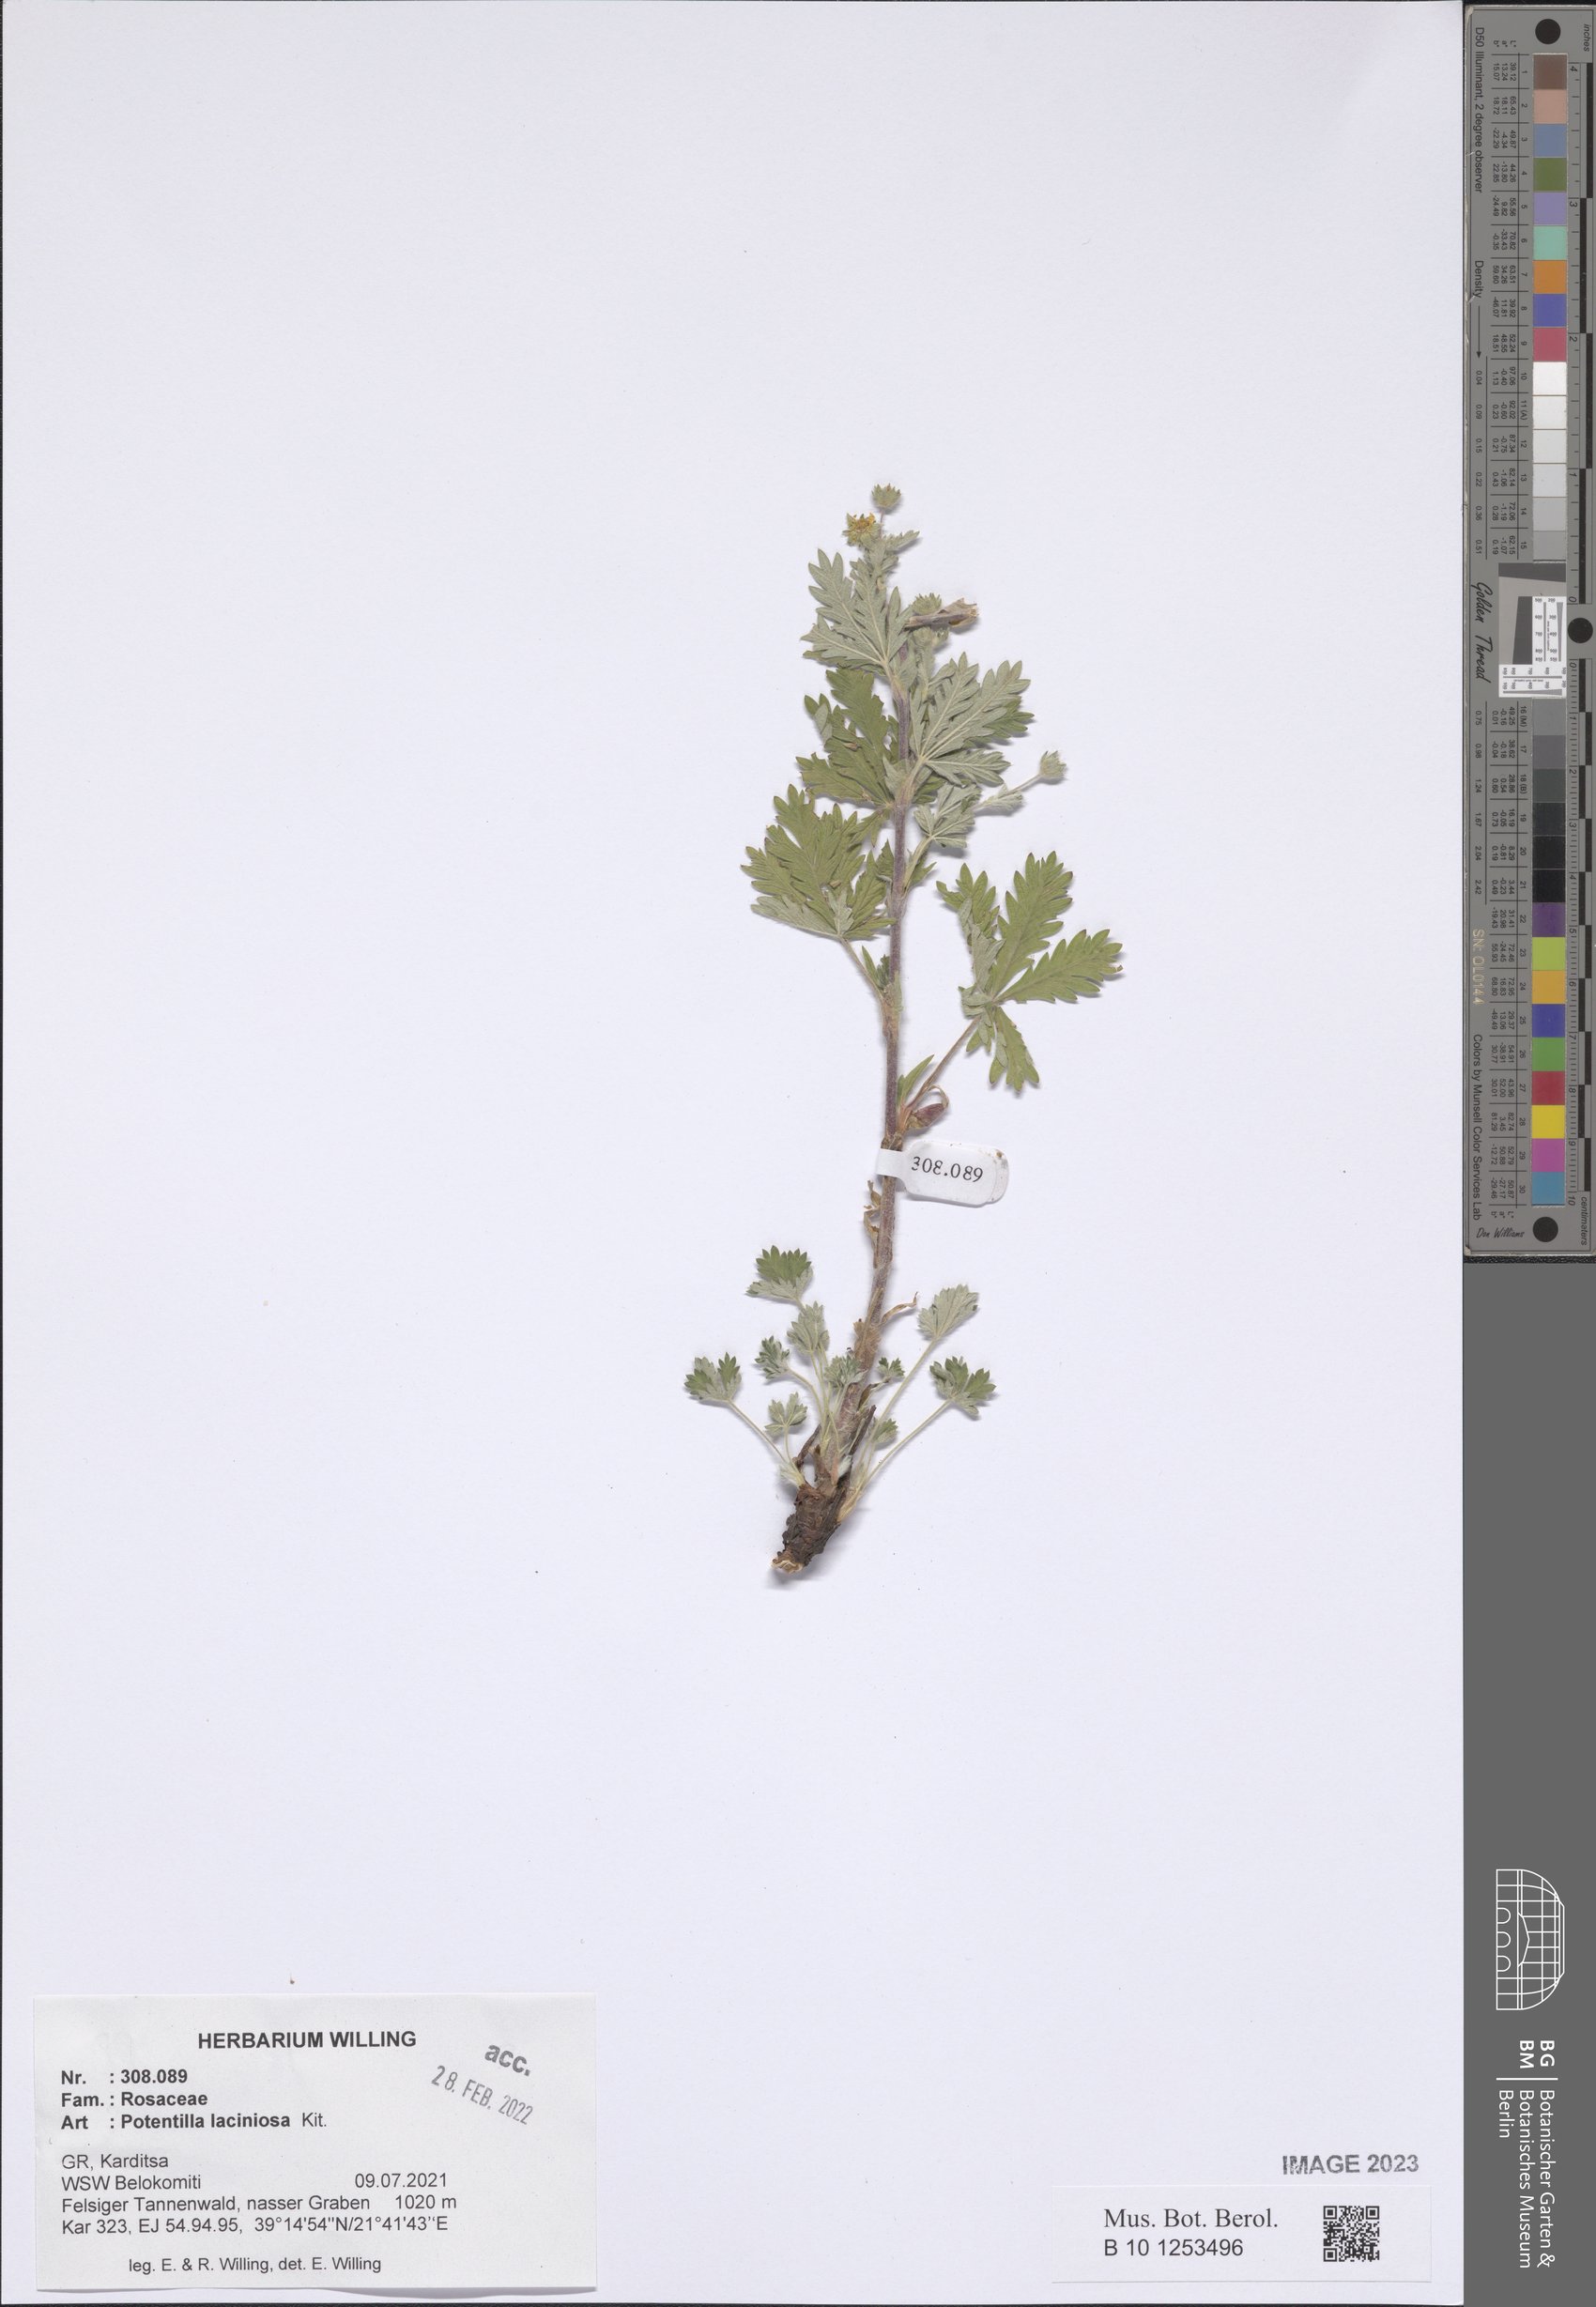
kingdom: Plantae
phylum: Tracheophyta
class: Magnoliopsida
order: Rosales
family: Rosaceae
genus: Potentilla
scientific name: Potentilla recta
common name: Sulphur cinquefoil
